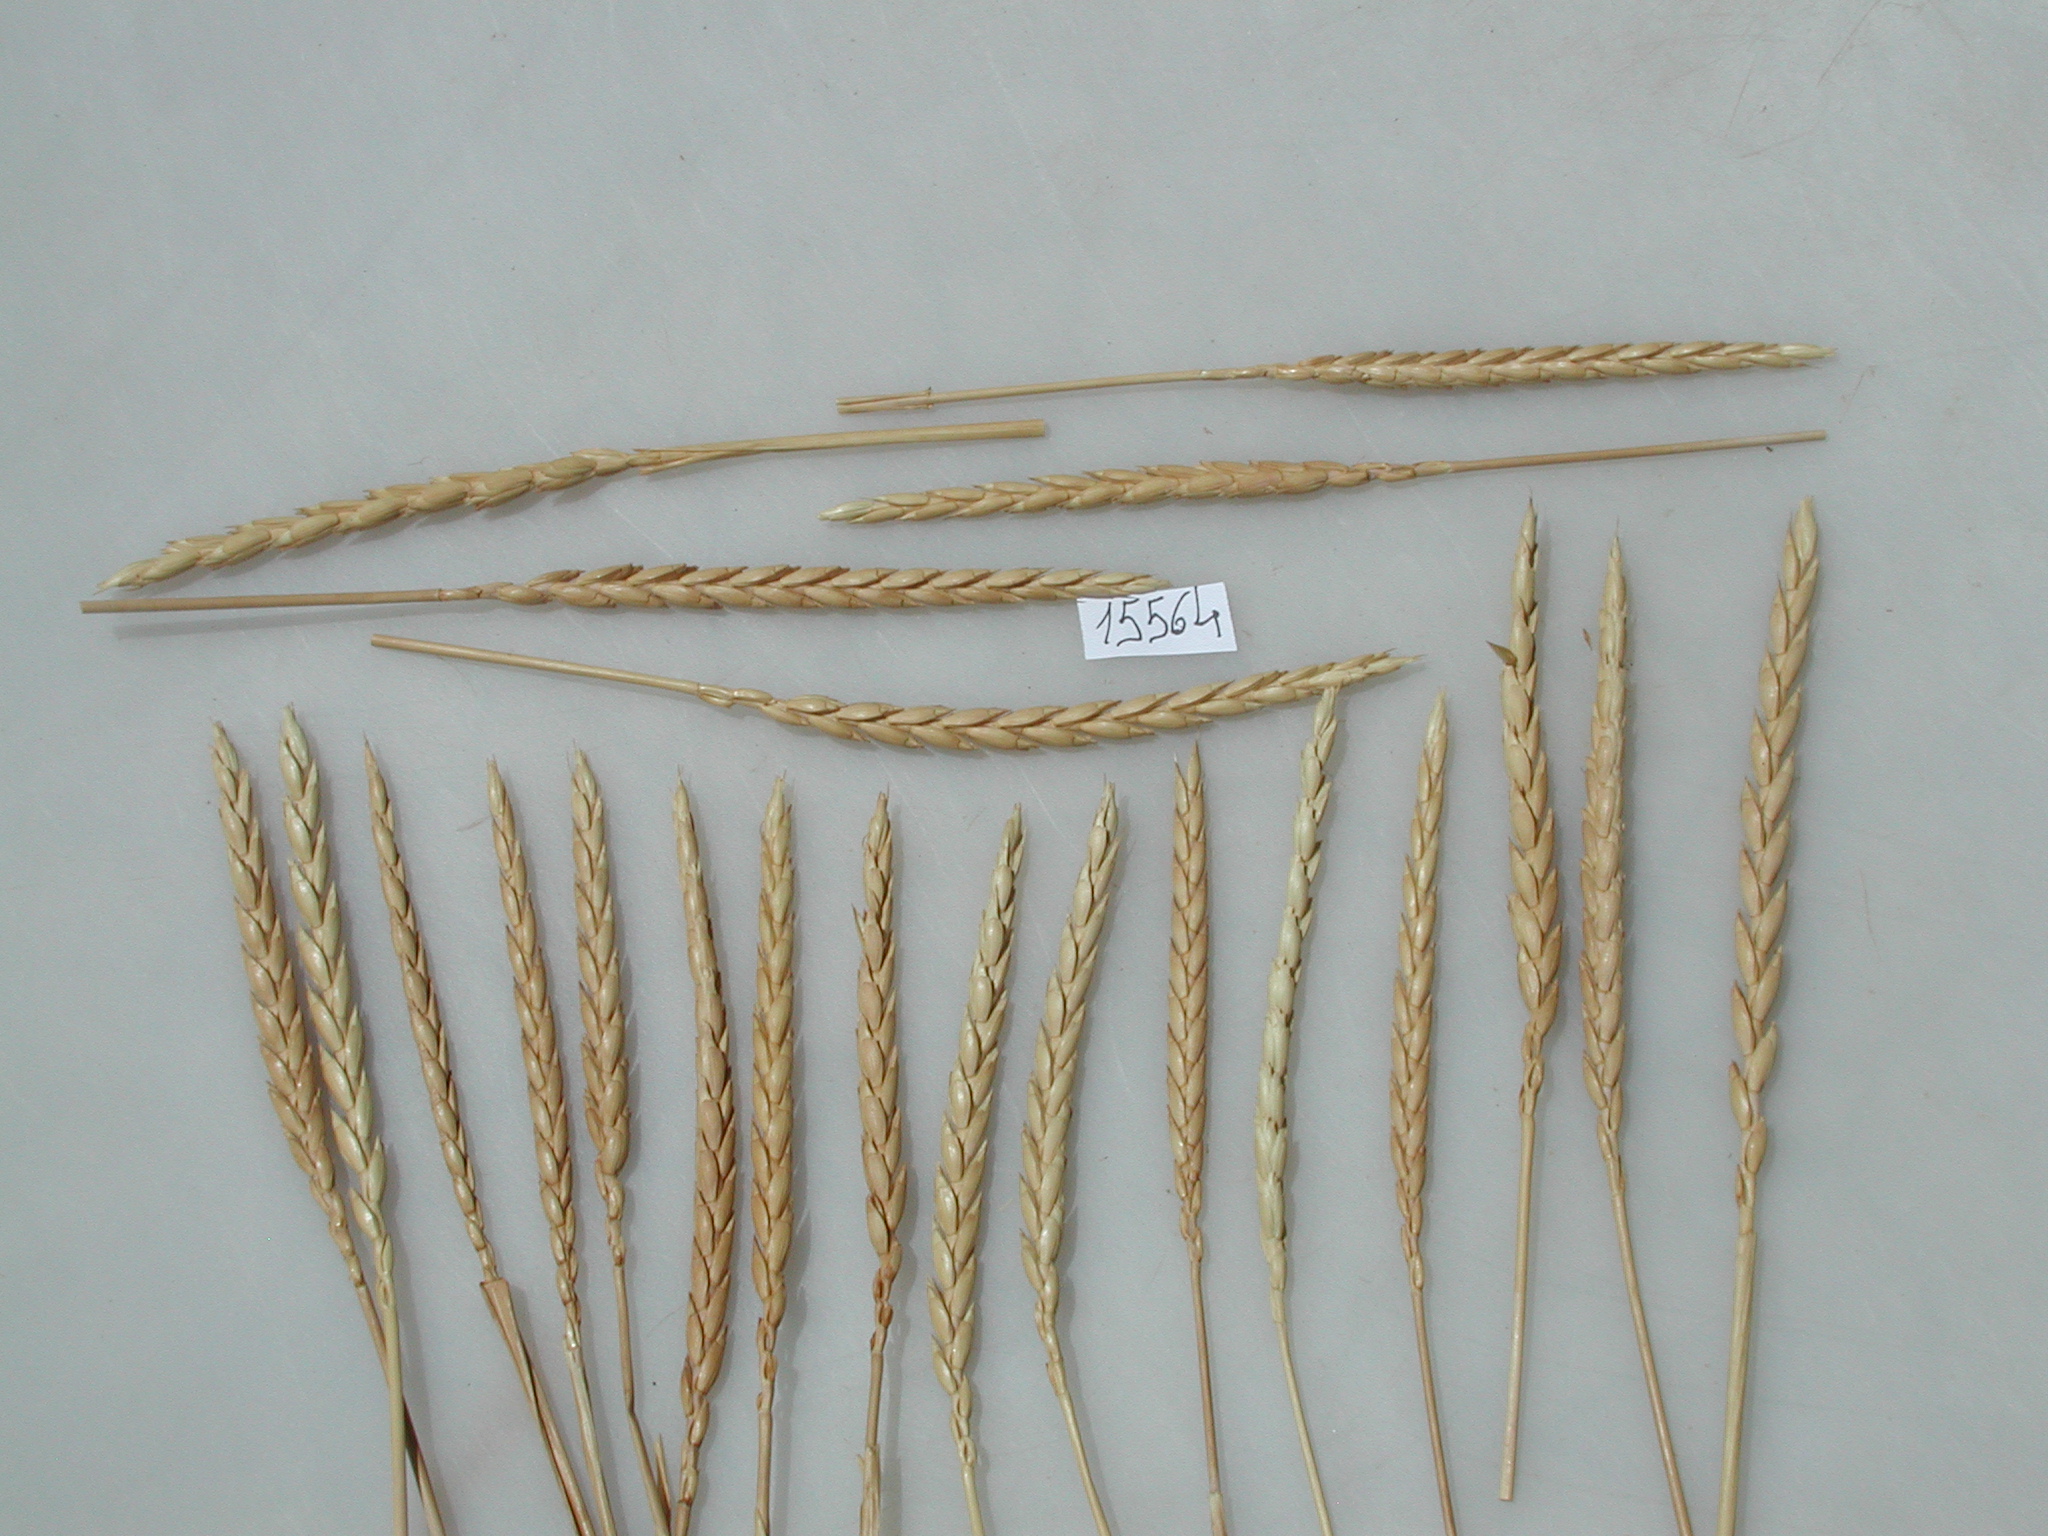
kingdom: Plantae
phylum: Tracheophyta
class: Liliopsida
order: Poales
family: Poaceae
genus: Triticum
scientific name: Triticum aestivum
